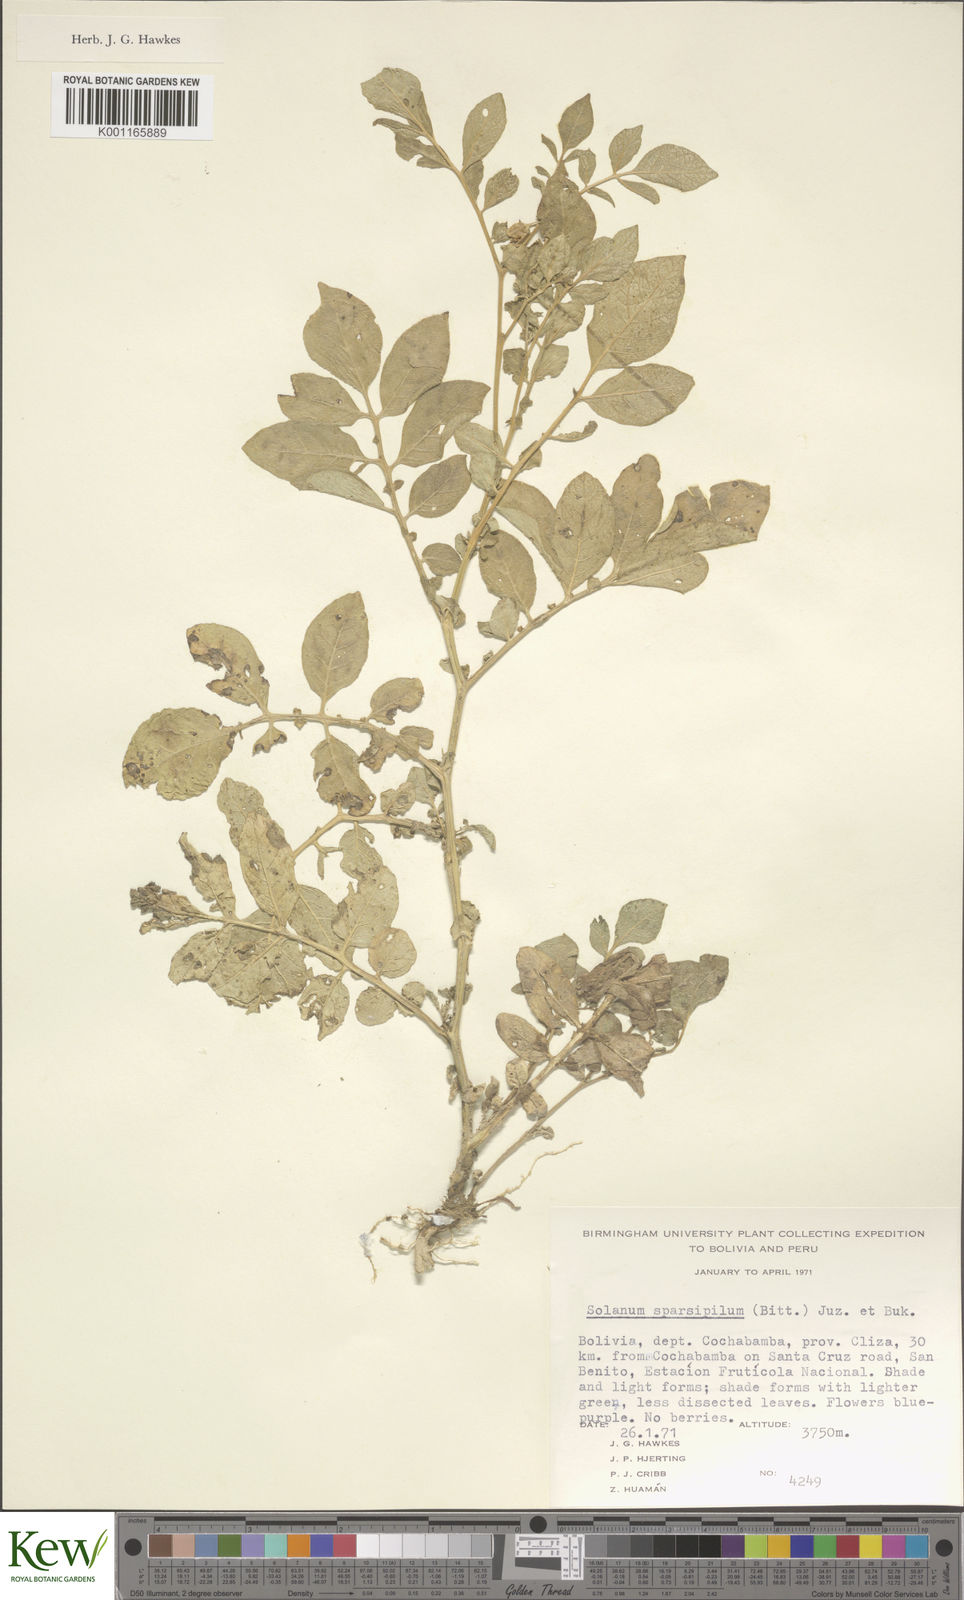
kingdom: Plantae
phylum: Tracheophyta
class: Magnoliopsida
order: Solanales
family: Solanaceae
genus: Solanum
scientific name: Solanum brevicaule
